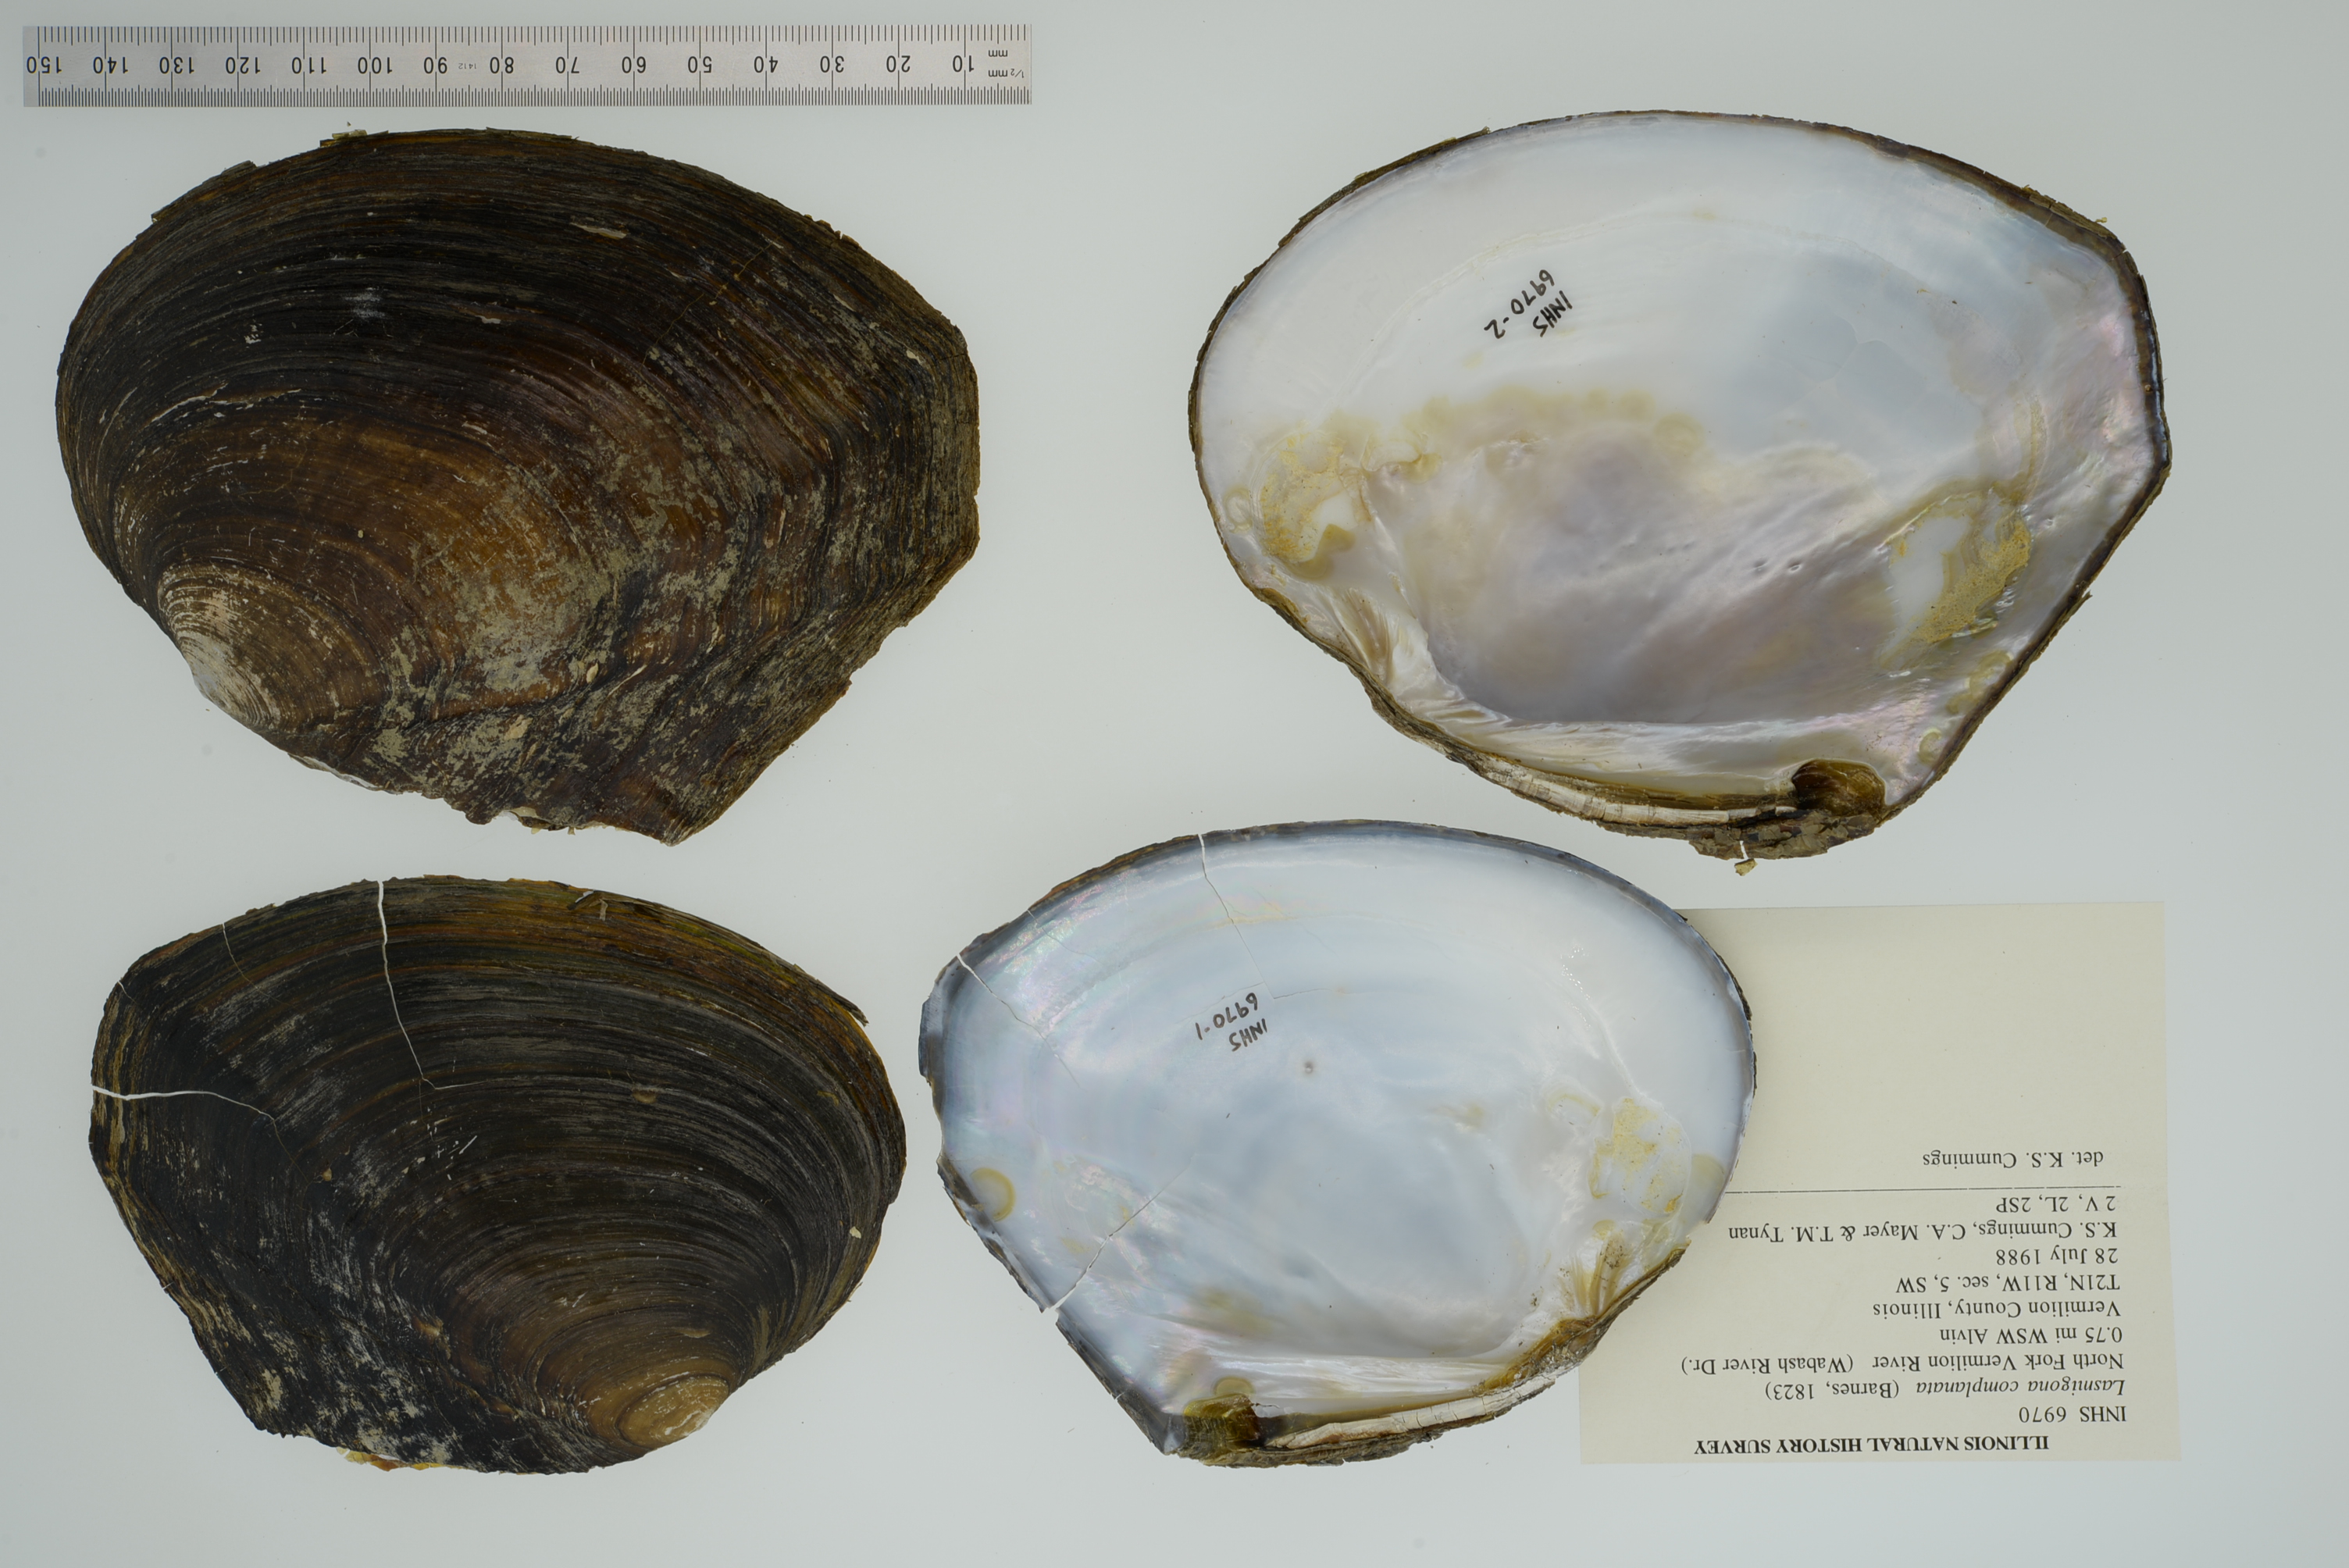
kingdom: Animalia
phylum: Mollusca
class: Bivalvia
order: Unionida
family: Unionidae
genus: Lasmigona
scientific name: Lasmigona complanata
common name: White heelsplitter
